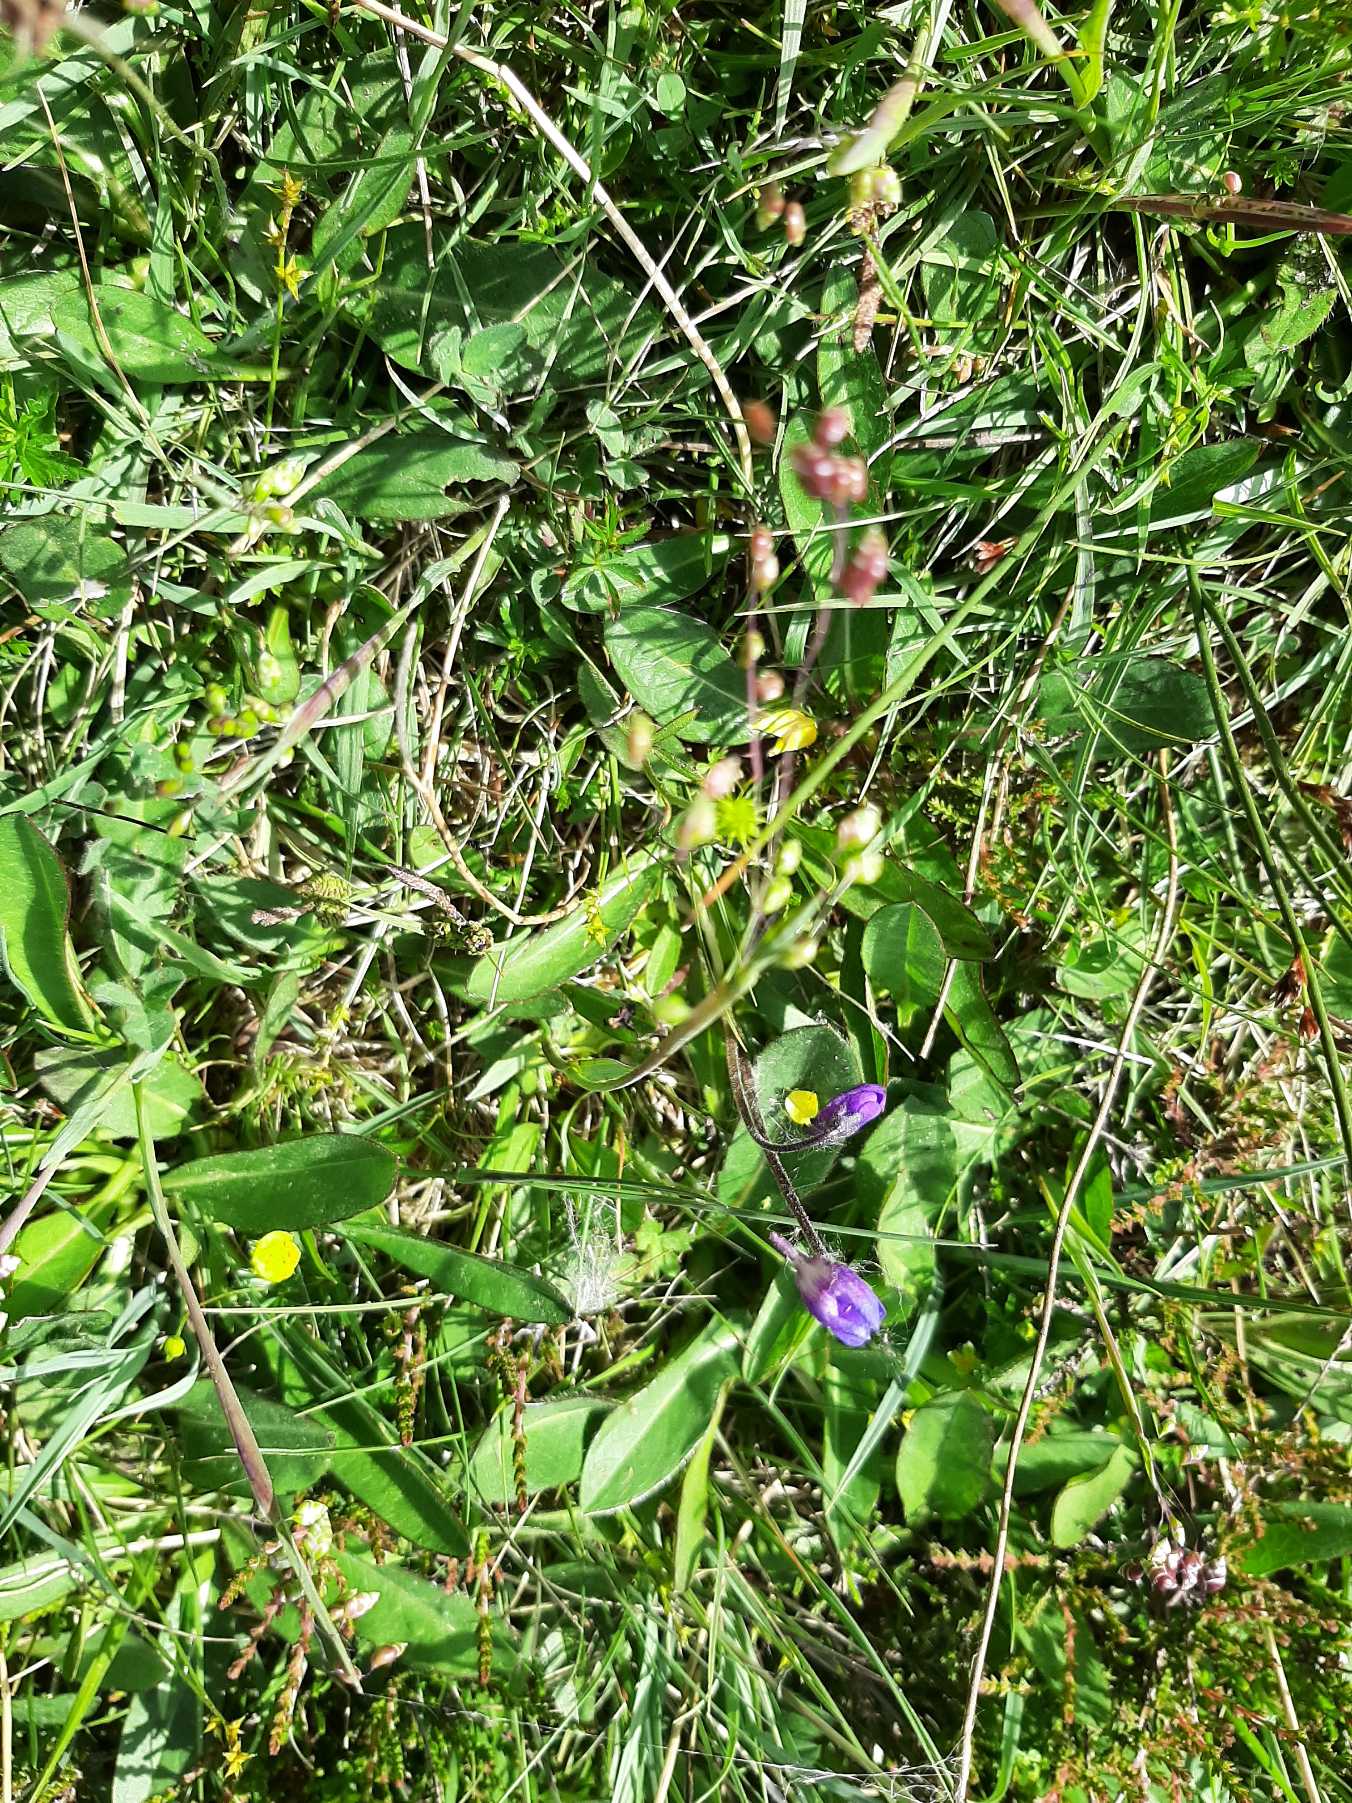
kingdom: Plantae
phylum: Tracheophyta
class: Magnoliopsida
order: Lamiales
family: Lentibulariaceae
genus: Pinguicula
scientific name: Pinguicula vulgaris
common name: Vibefedt
